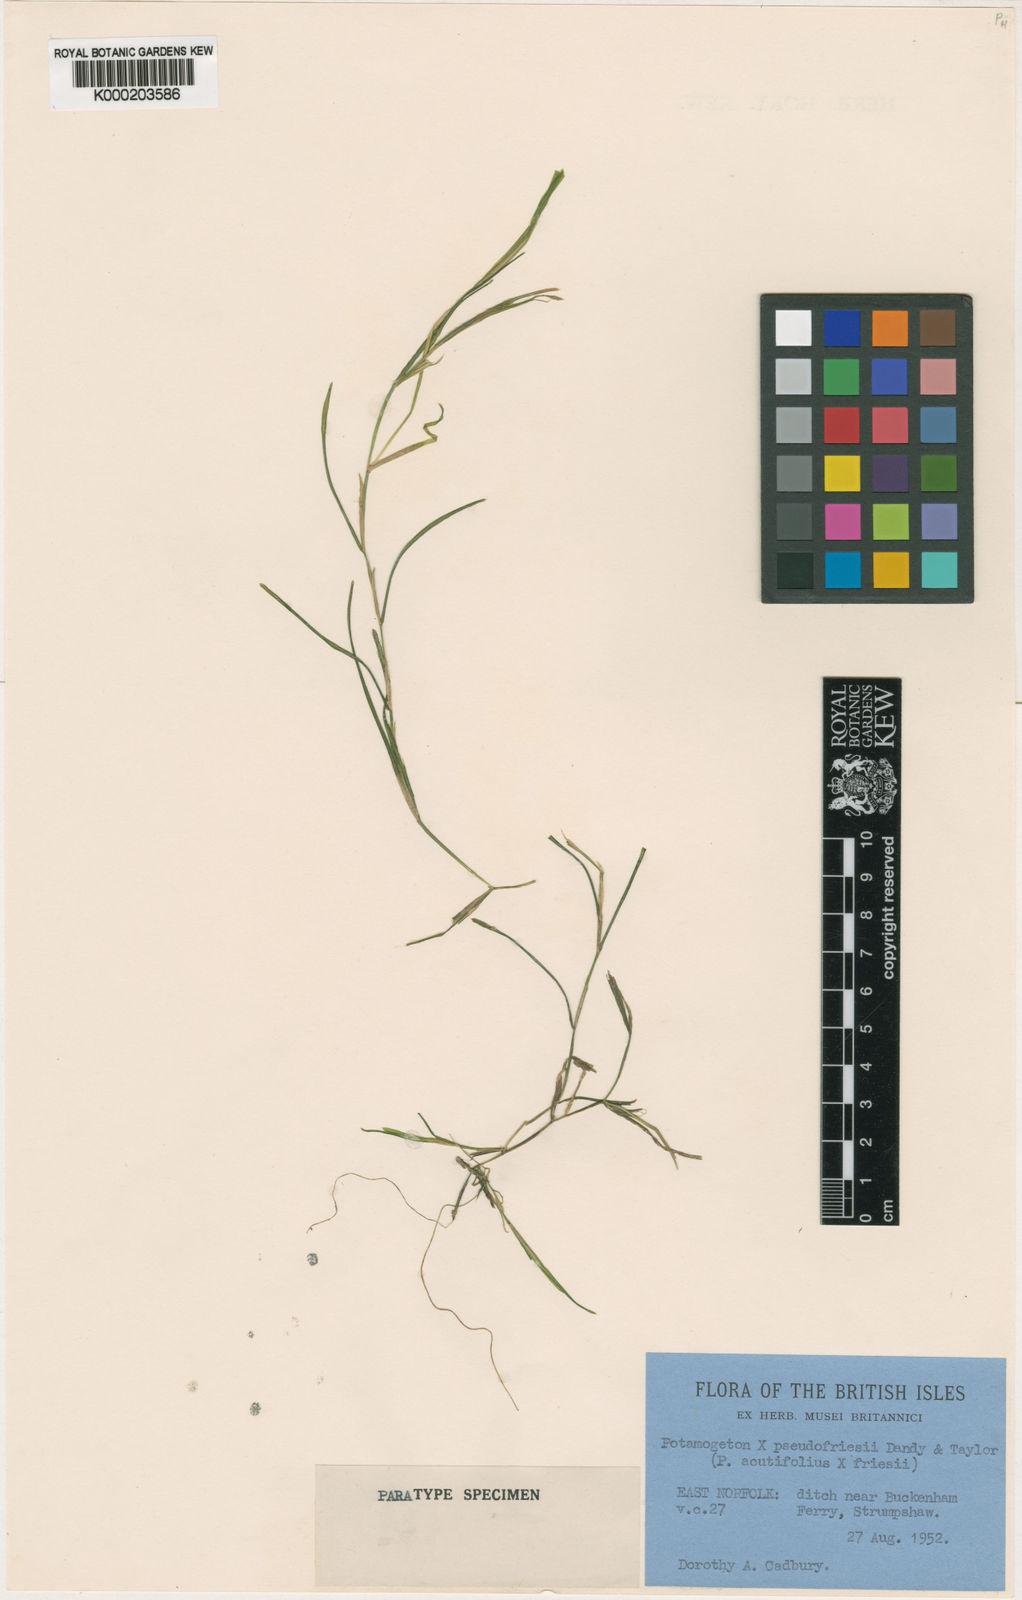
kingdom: Plantae
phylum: Tracheophyta
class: Liliopsida
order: Alismatales
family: Potamogetonaceae
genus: Potamogeton
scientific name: Potamogeton
